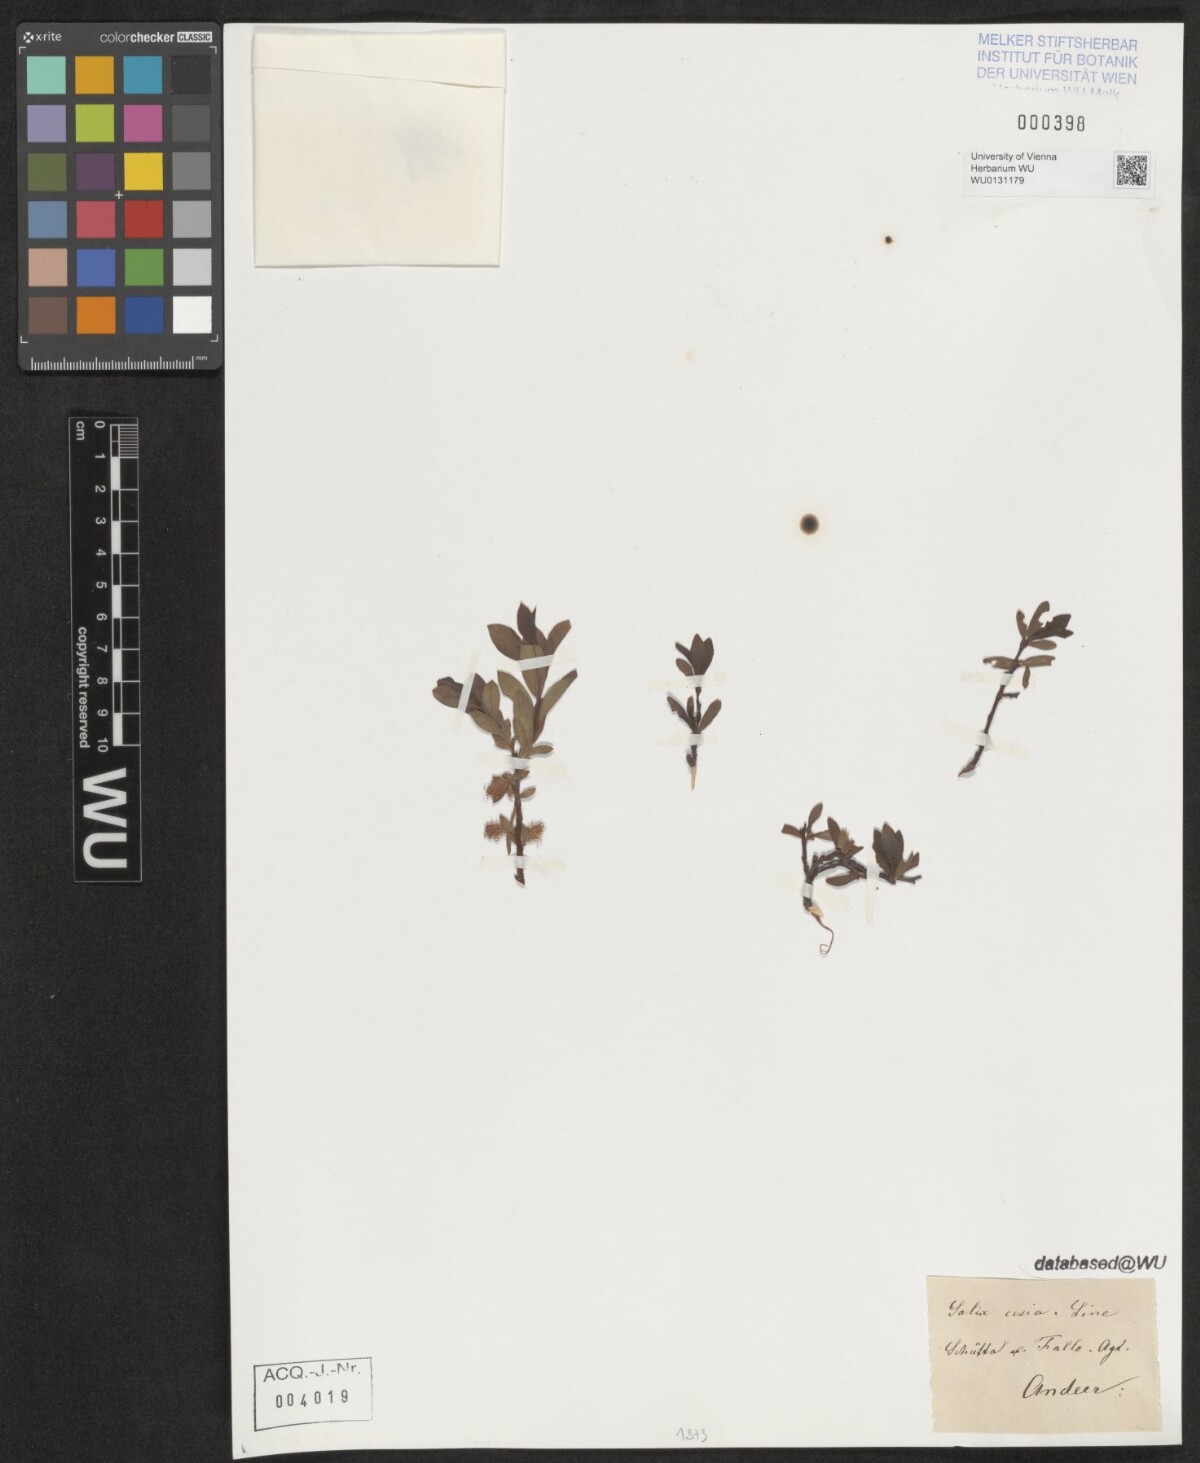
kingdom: Plantae
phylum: Tracheophyta
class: Magnoliopsida
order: Malpighiales
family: Salicaceae
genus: Salix
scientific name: Salix caesia
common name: Blue willow
